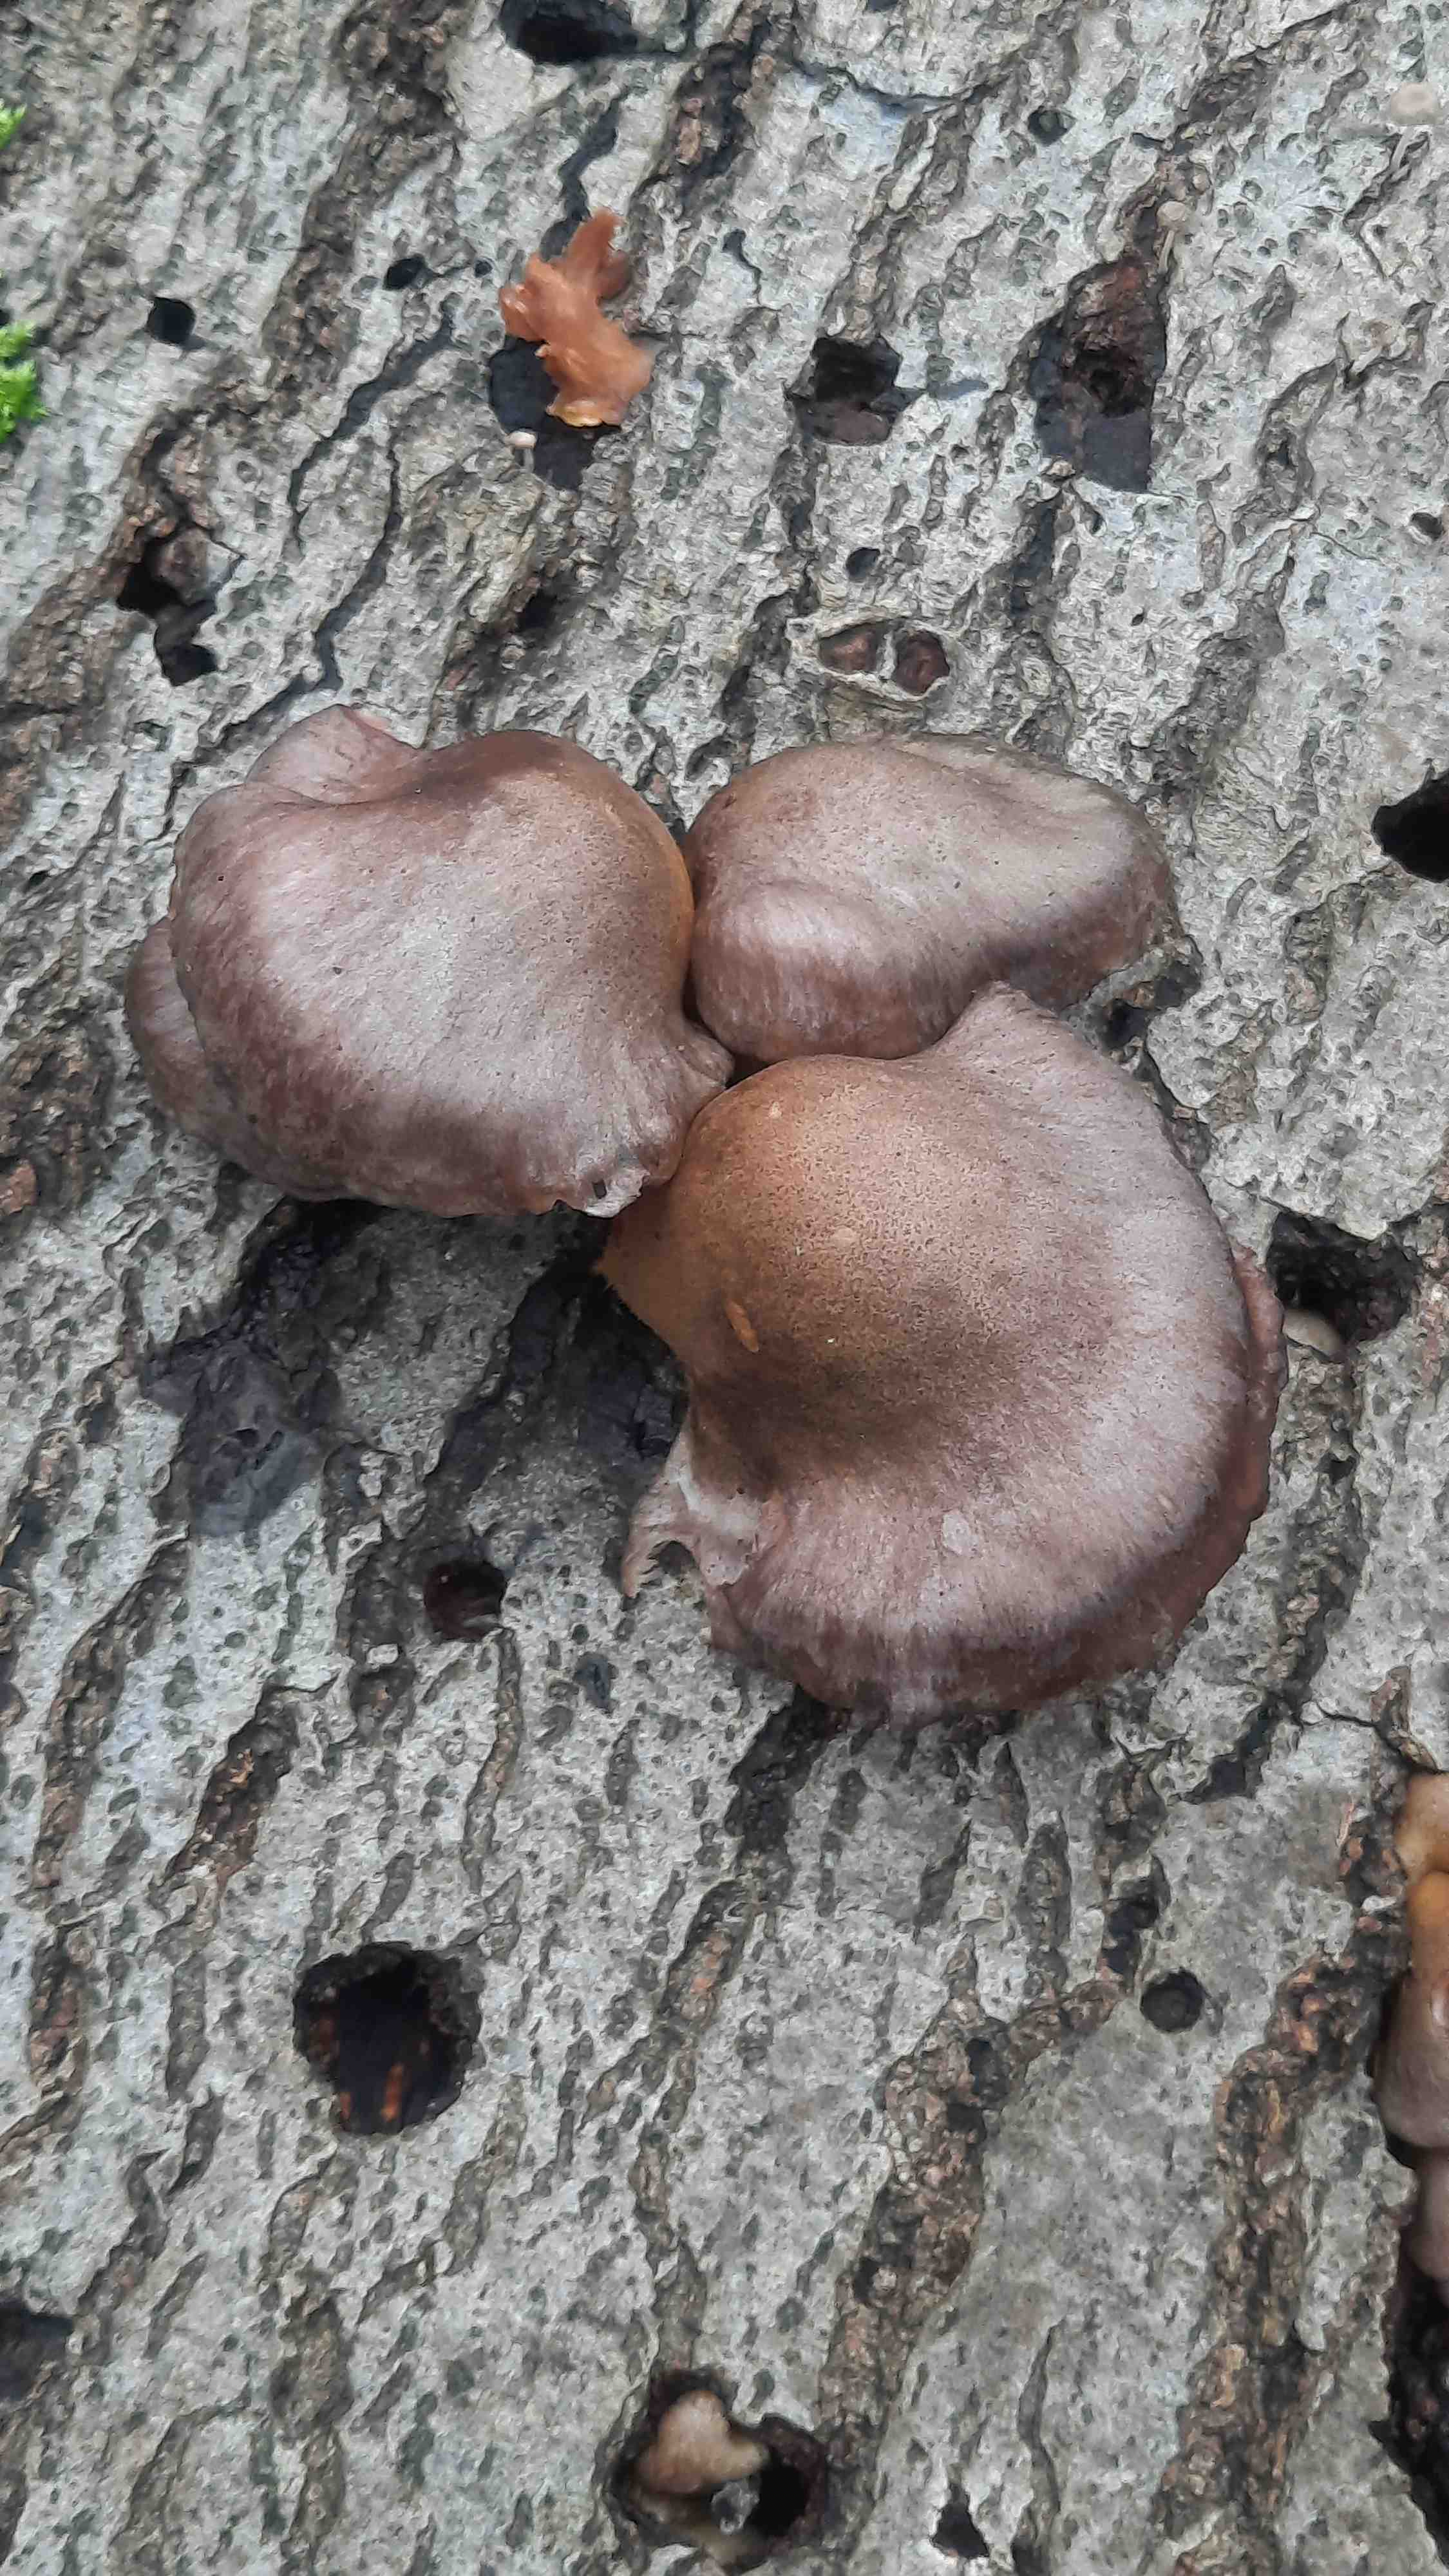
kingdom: Fungi
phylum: Basidiomycota
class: Agaricomycetes
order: Agaricales
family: Sarcomyxaceae
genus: Sarcomyxa
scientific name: Sarcomyxa serotina
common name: gummihat
